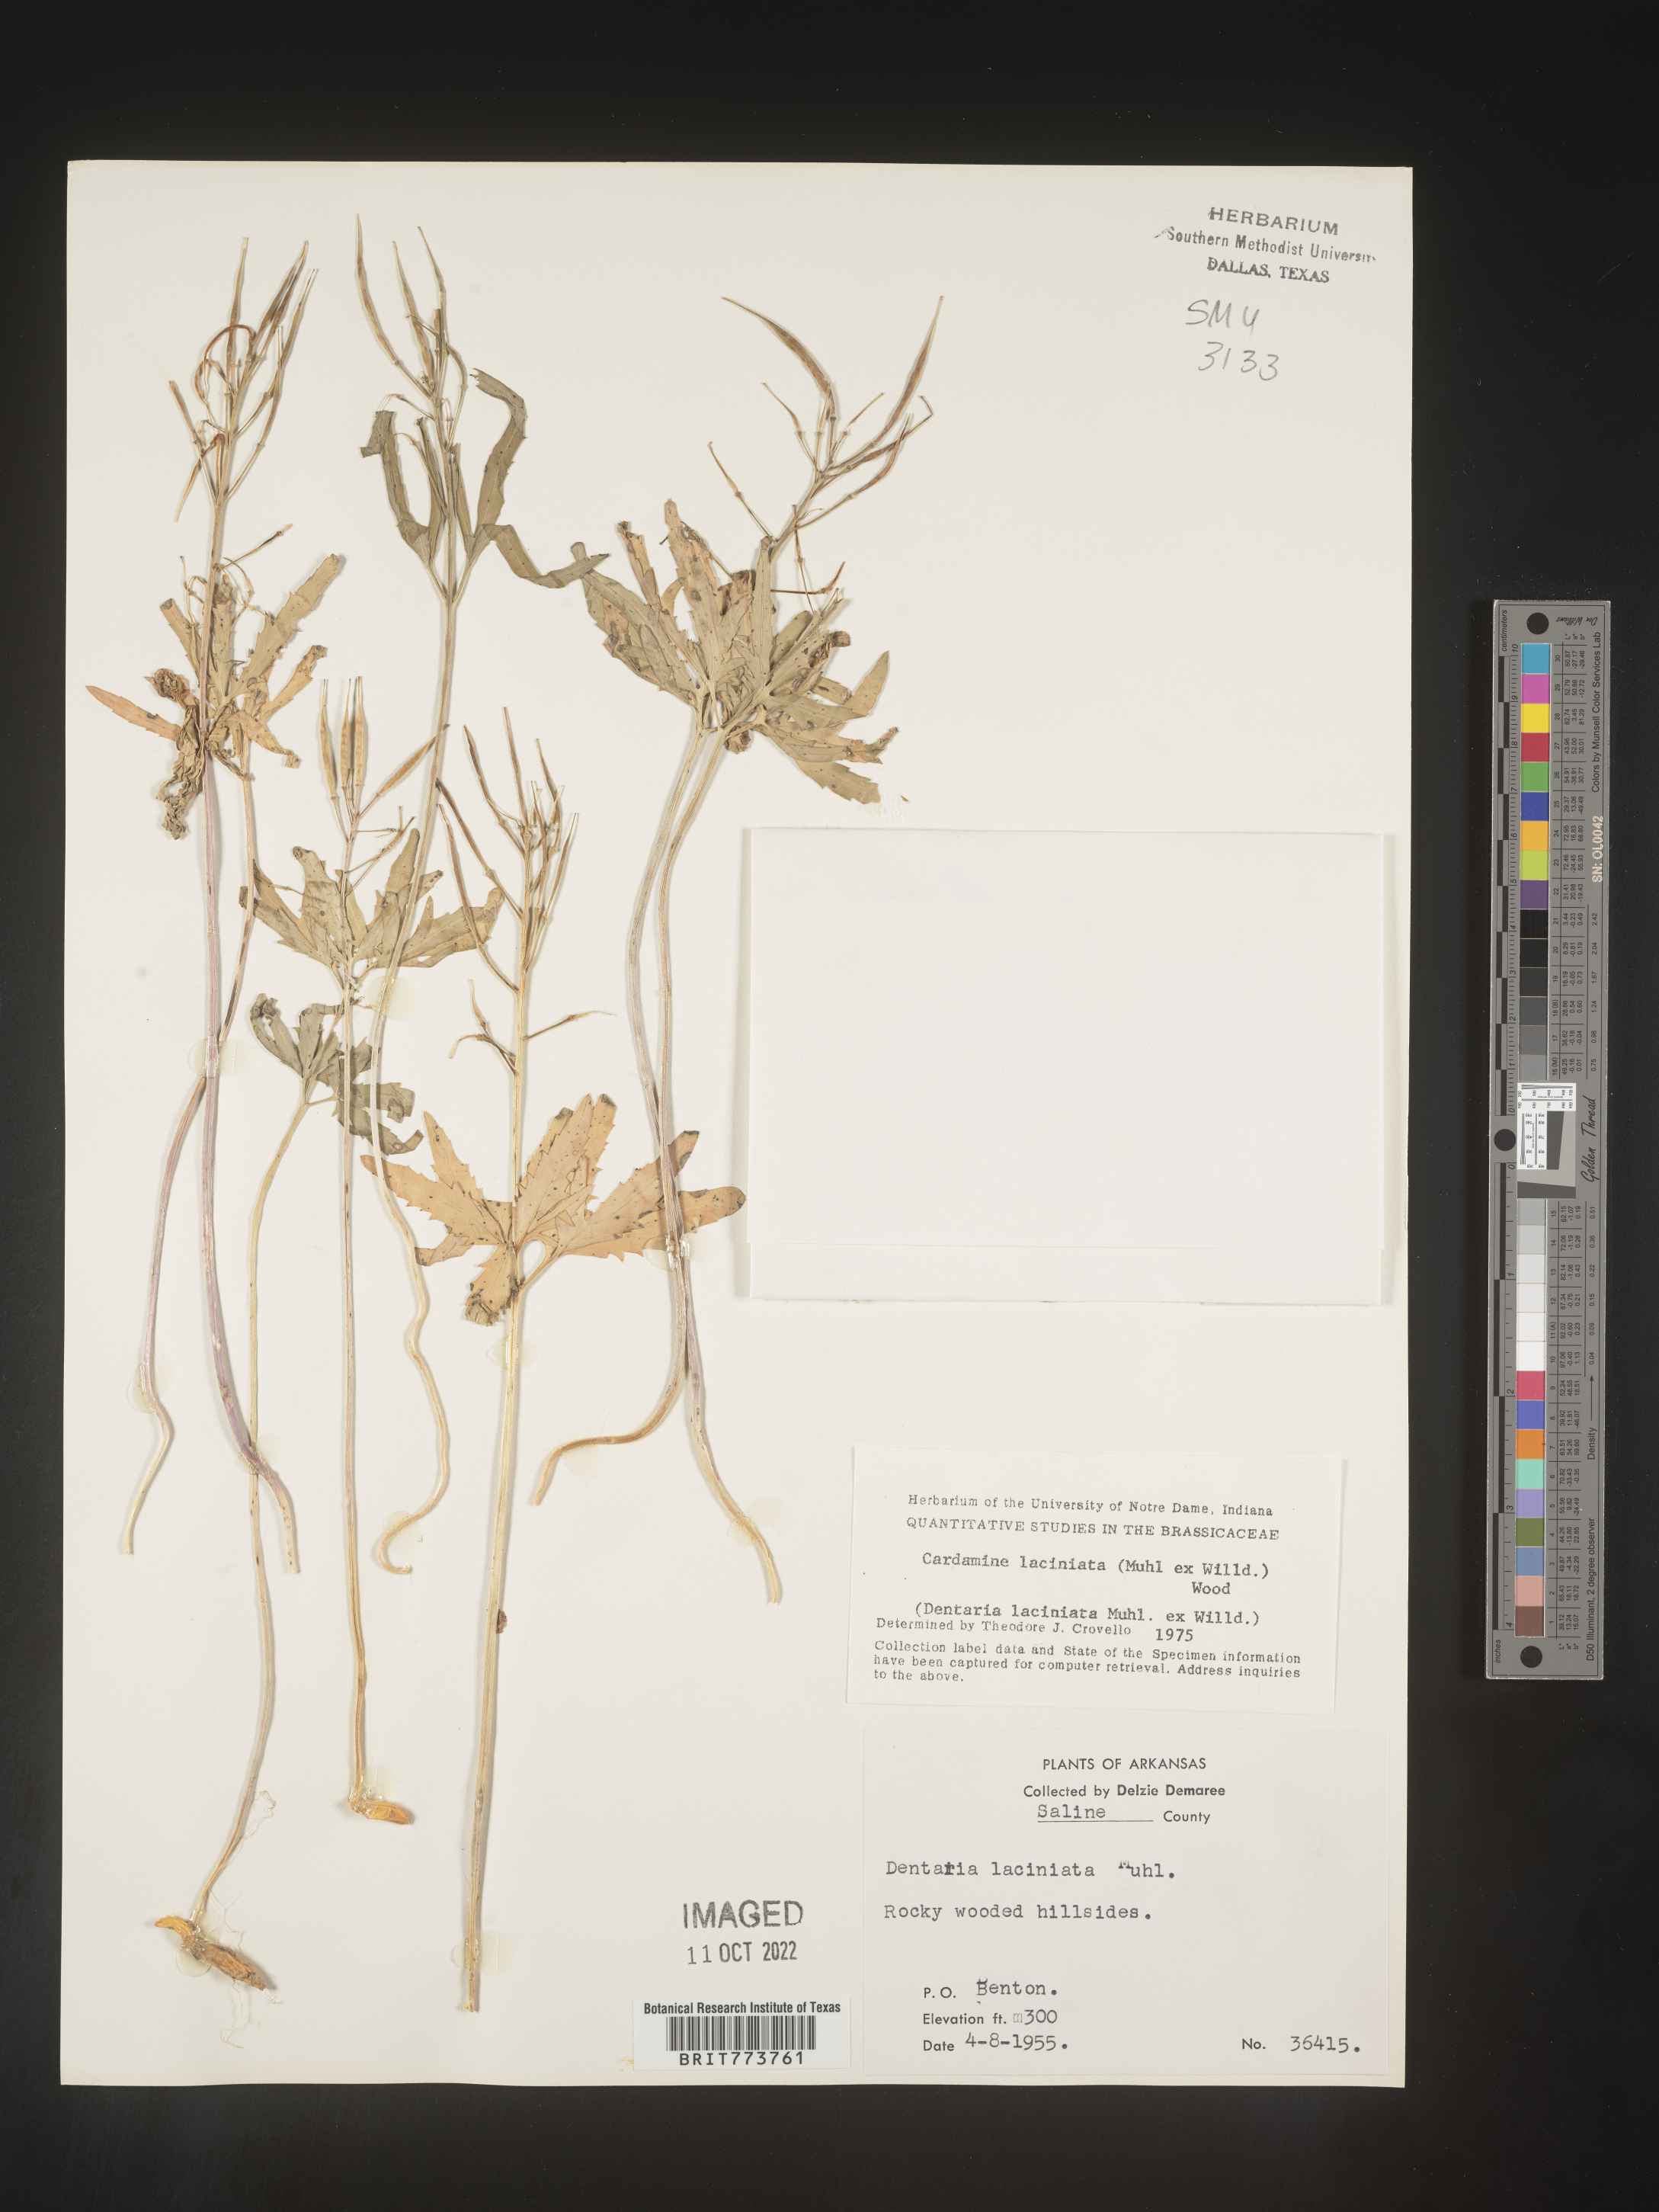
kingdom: Plantae
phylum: Tracheophyta
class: Magnoliopsida
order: Brassicales
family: Brassicaceae
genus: Rorippa
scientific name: Rorippa laciniata
